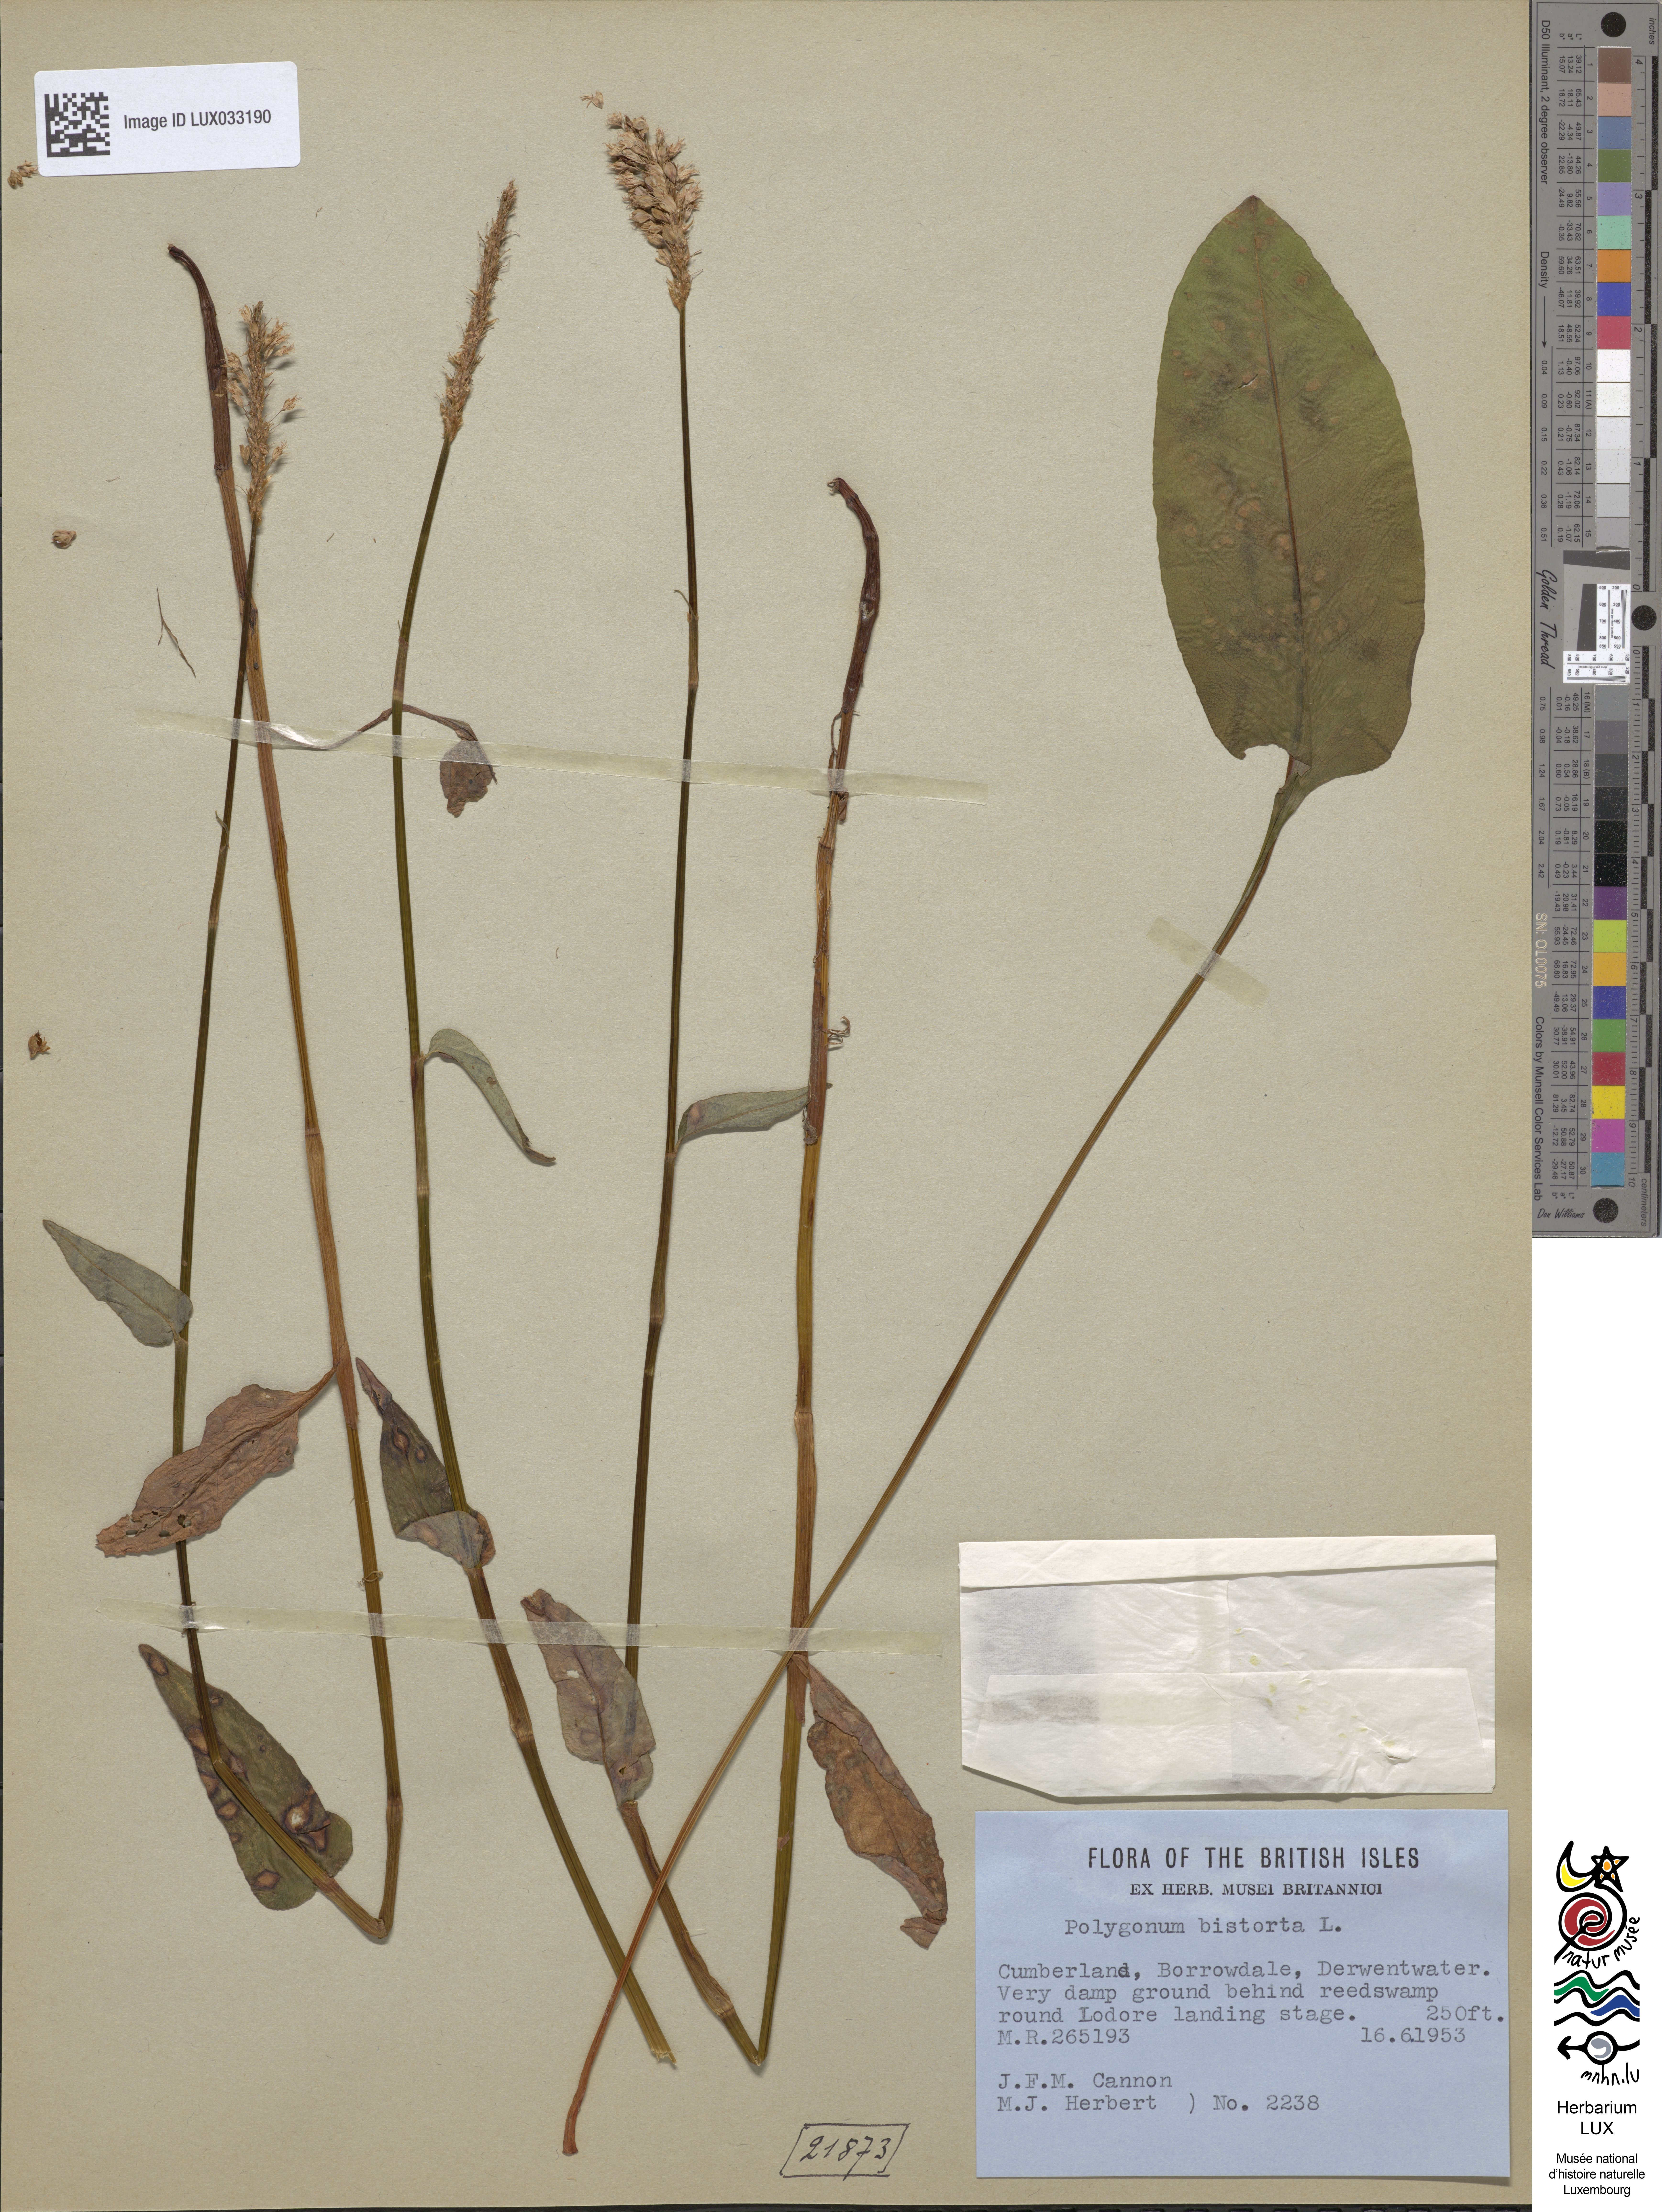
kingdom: Plantae
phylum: Tracheophyta
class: Magnoliopsida
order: Caryophyllales
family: Polygonaceae
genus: Bistorta
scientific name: Bistorta officinalis
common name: Common bistort
